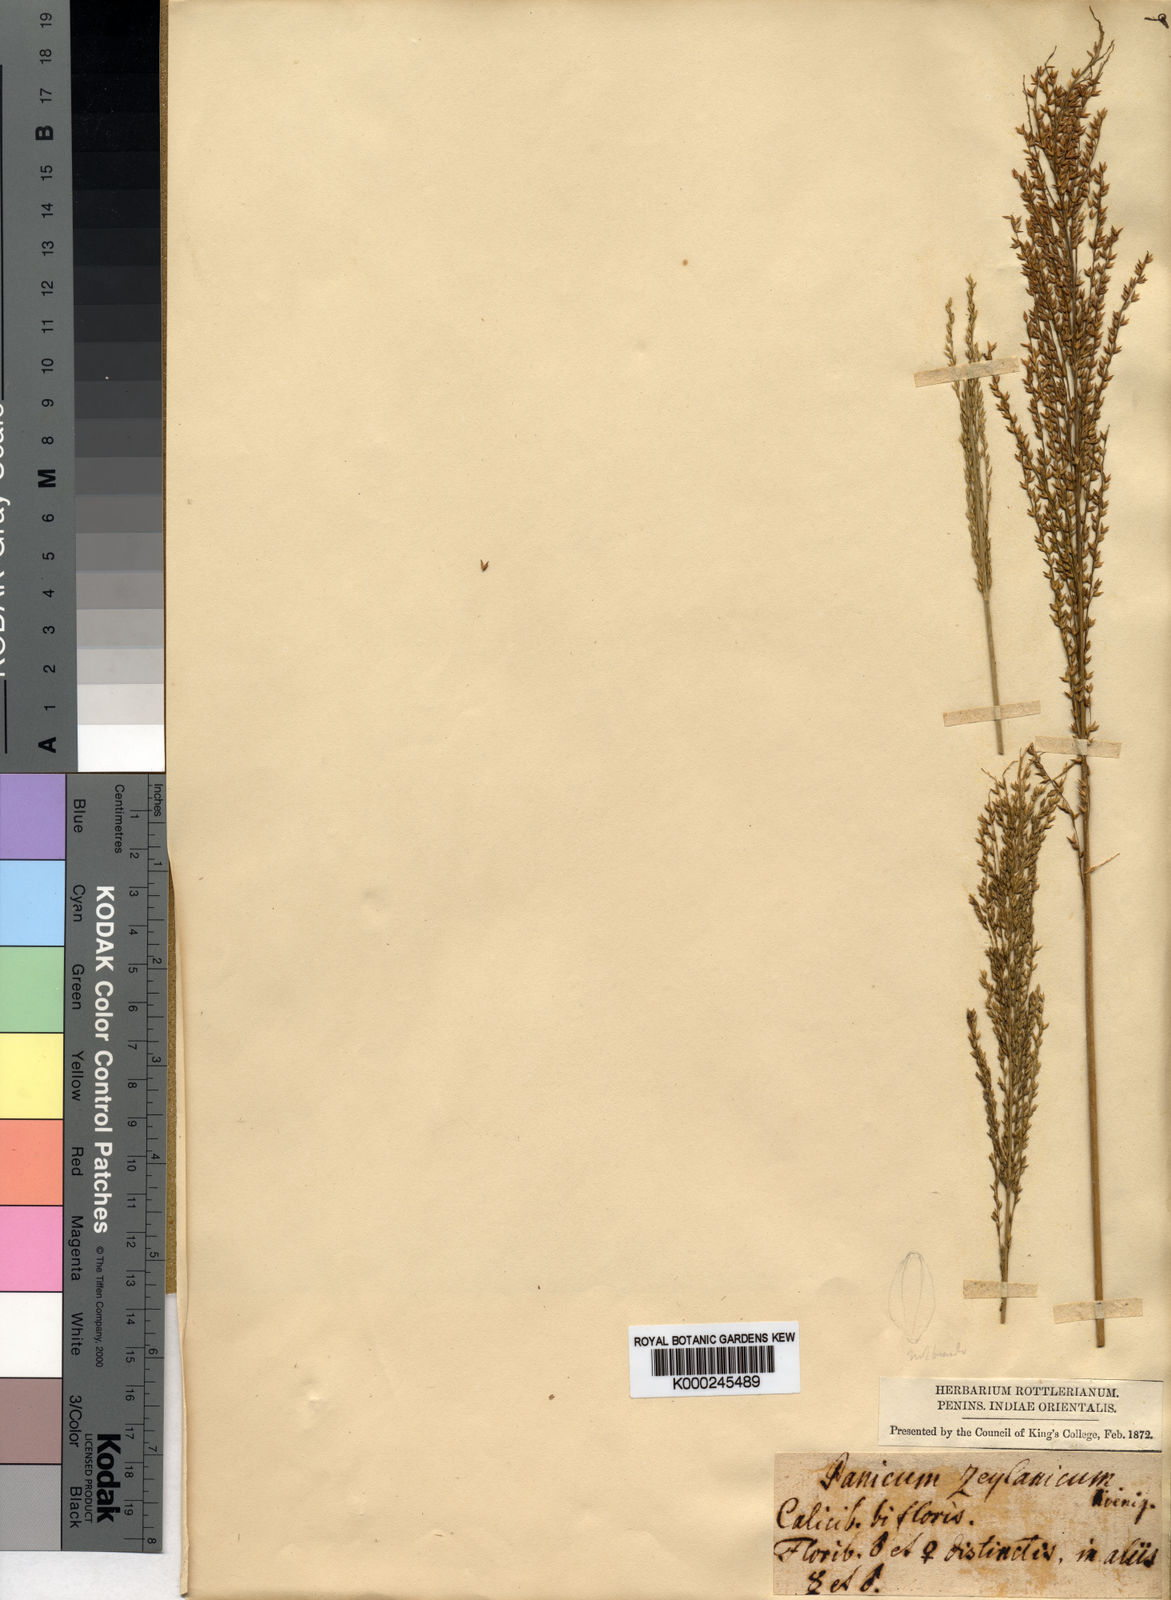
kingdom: Plantae
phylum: Tracheophyta
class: Liliopsida
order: Poales
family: Poaceae
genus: Arundinella
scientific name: Arundinella leptochloa
